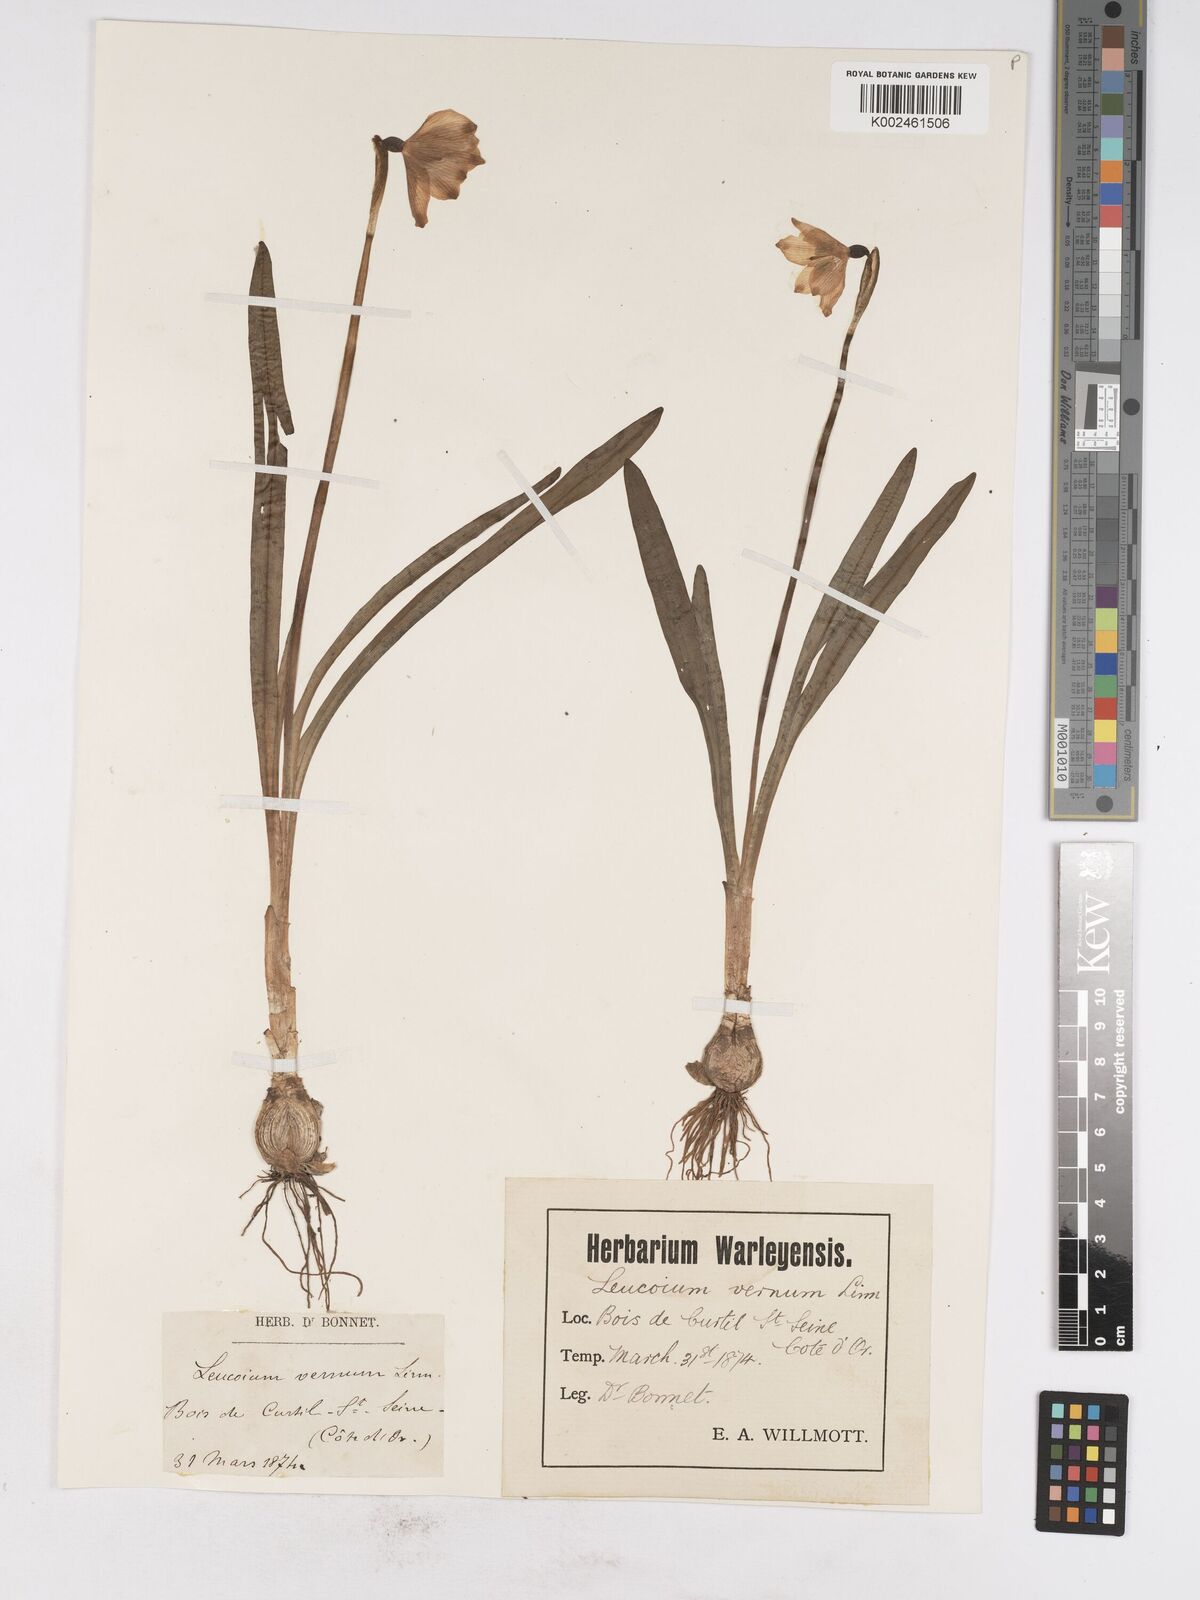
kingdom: Plantae
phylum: Tracheophyta
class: Liliopsida
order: Asparagales
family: Amaryllidaceae
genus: Leucojum
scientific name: Leucojum vernum
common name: Spring snowflake
